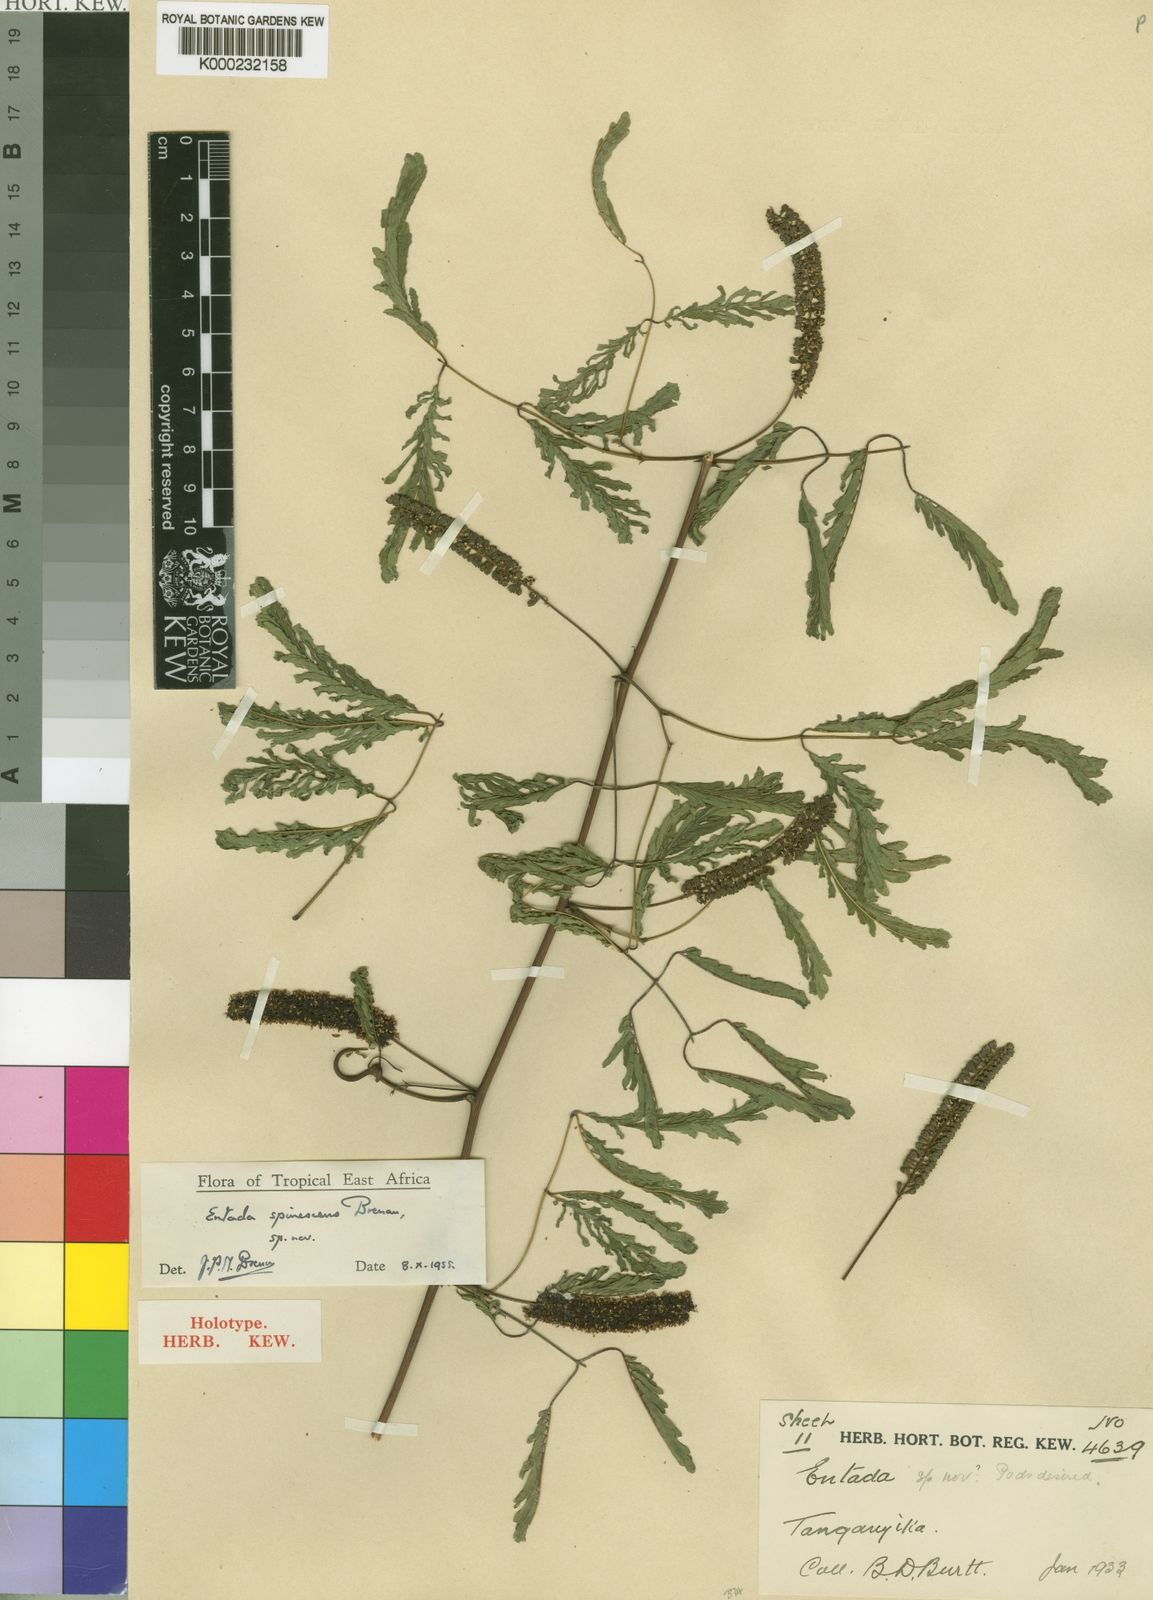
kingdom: Plantae
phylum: Tracheophyta
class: Magnoliopsida
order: Fabales
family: Fabaceae
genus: Entada
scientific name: Entada spinescens
